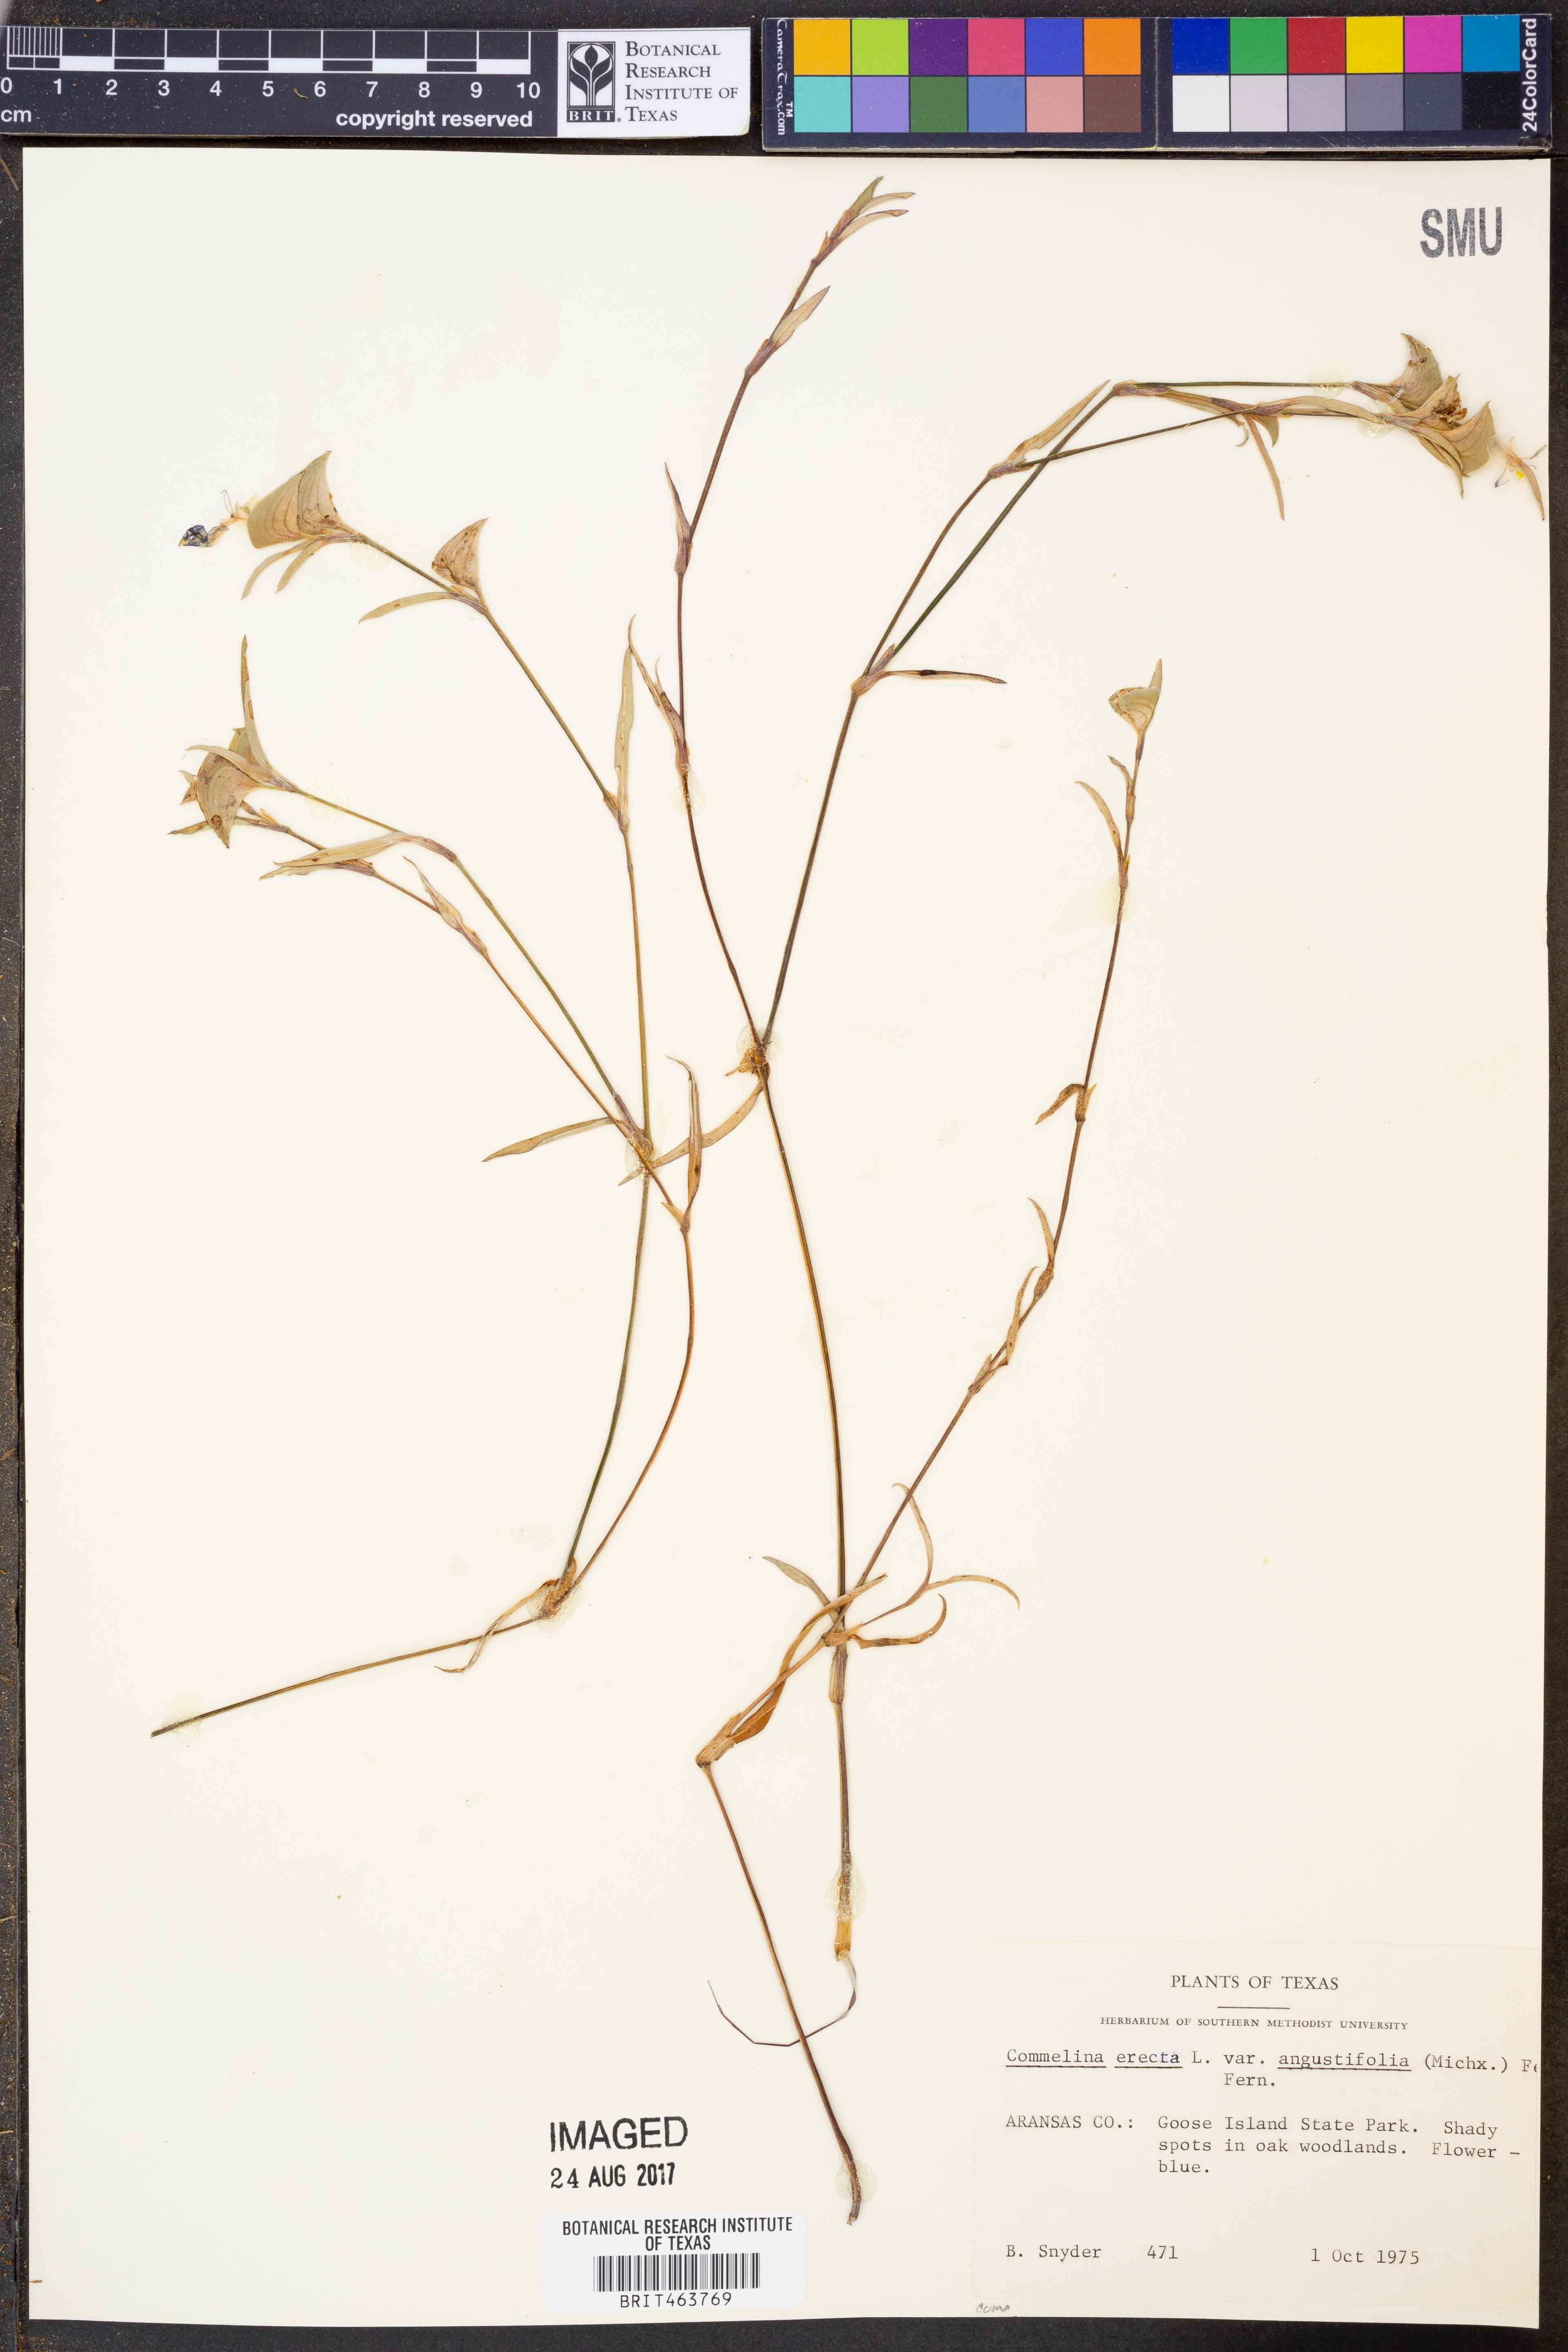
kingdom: Plantae
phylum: Tracheophyta
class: Liliopsida
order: Commelinales
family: Commelinaceae
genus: Commelina
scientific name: Commelina erecta
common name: Blousel blommetjie
